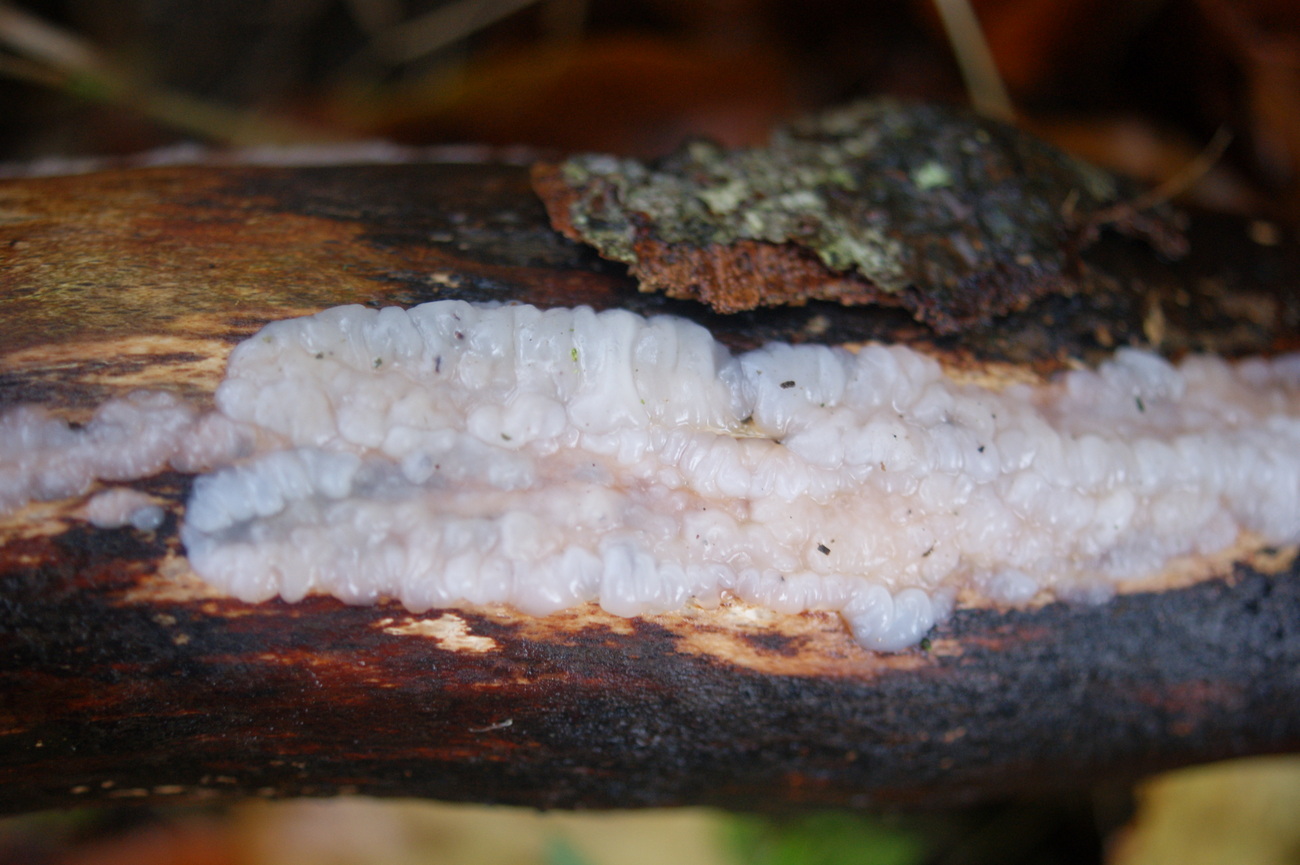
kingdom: Fungi
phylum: Basidiomycota
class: Agaricomycetes
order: Auriculariales
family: Auriculariaceae
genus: Exidia
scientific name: Exidia thuretiana
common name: hvidlig bævretop
